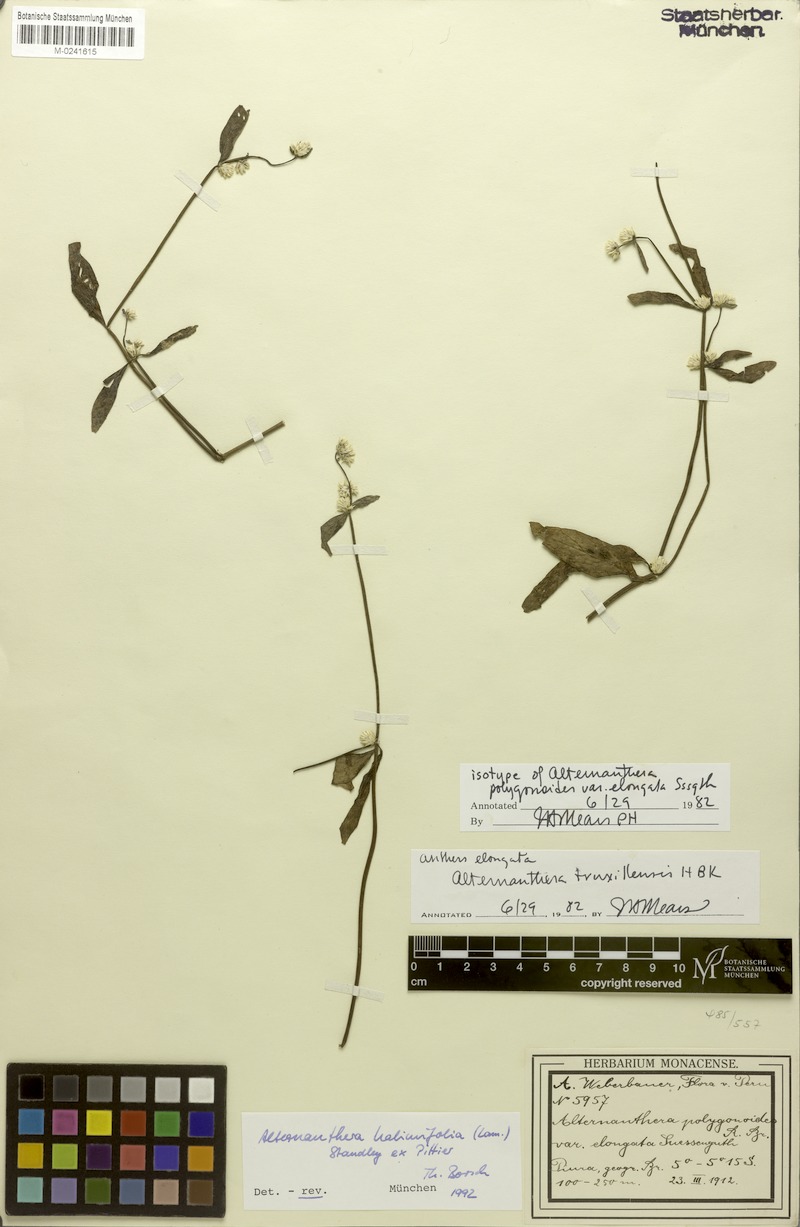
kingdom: Plantae
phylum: Tracheophyta
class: Magnoliopsida
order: Caryophyllales
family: Amaranthaceae
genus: Alternanthera
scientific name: Alternanthera halimifolia
